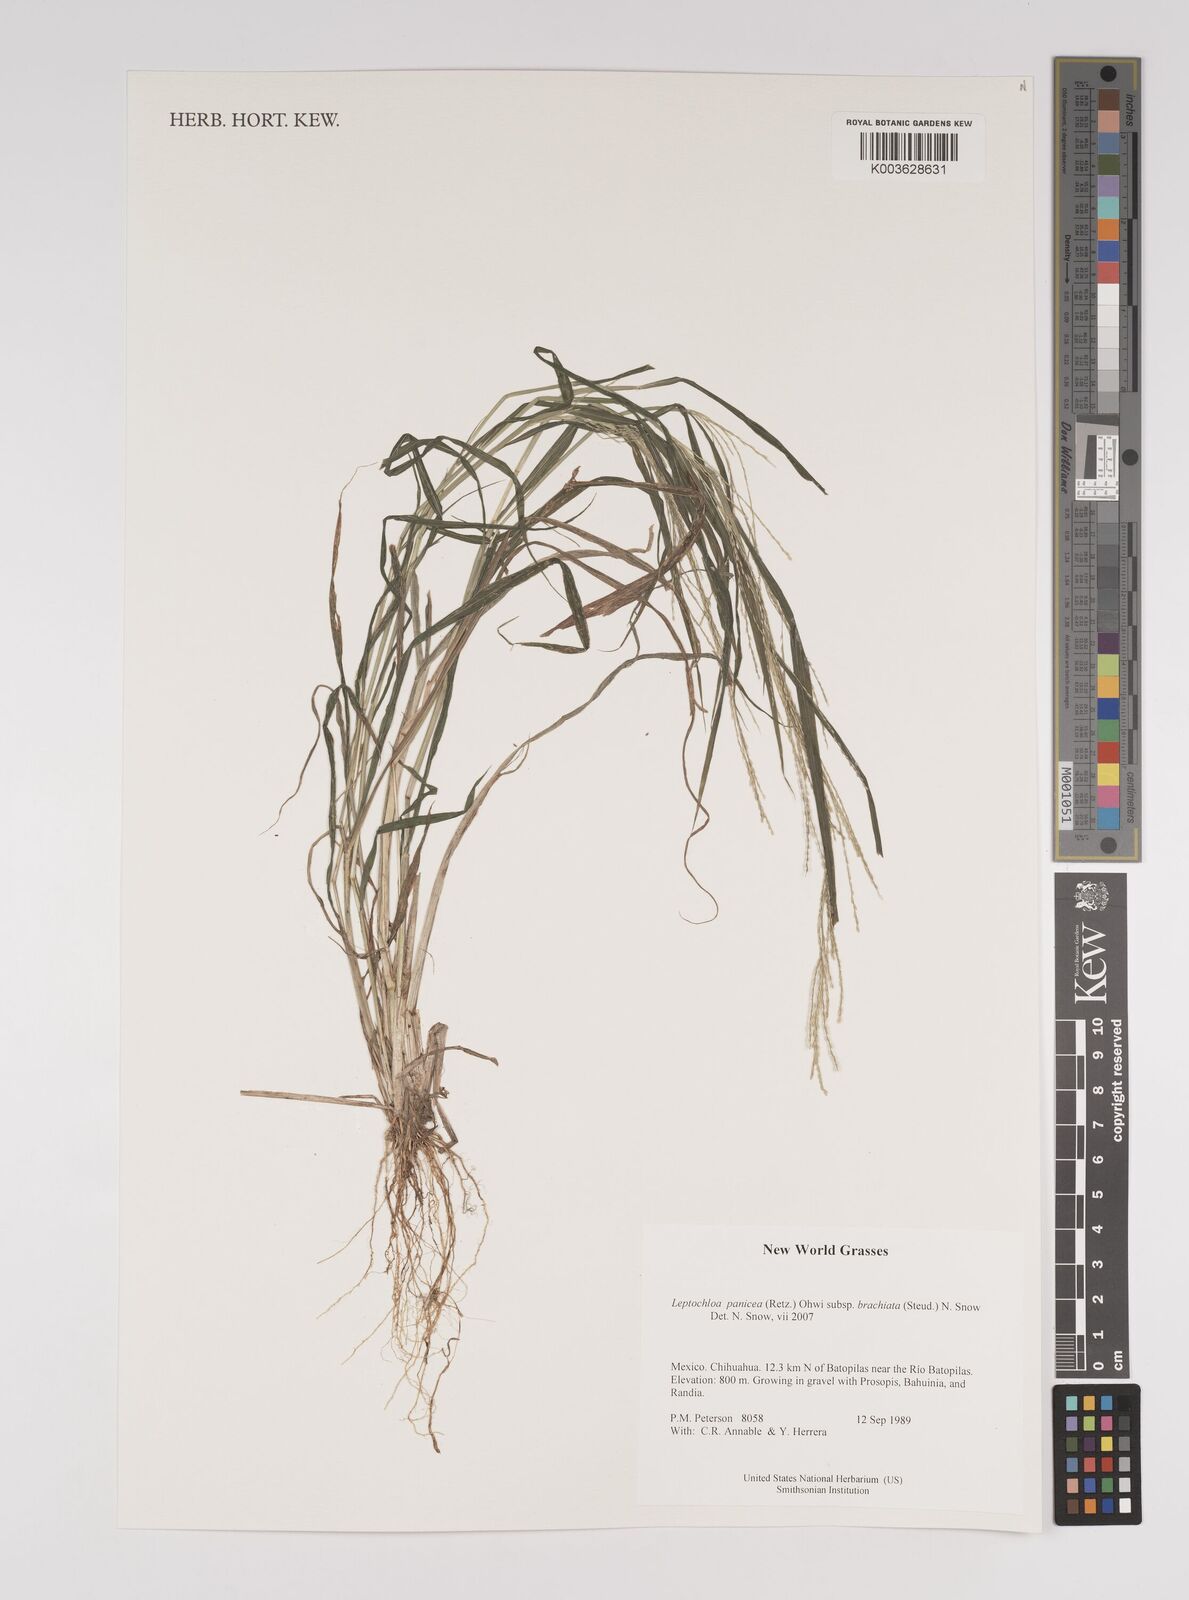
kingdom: Plantae
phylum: Tracheophyta
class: Liliopsida
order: Poales
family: Poaceae
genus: Leptochloa
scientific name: Leptochloa panicea
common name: Mucronate sprangletop
